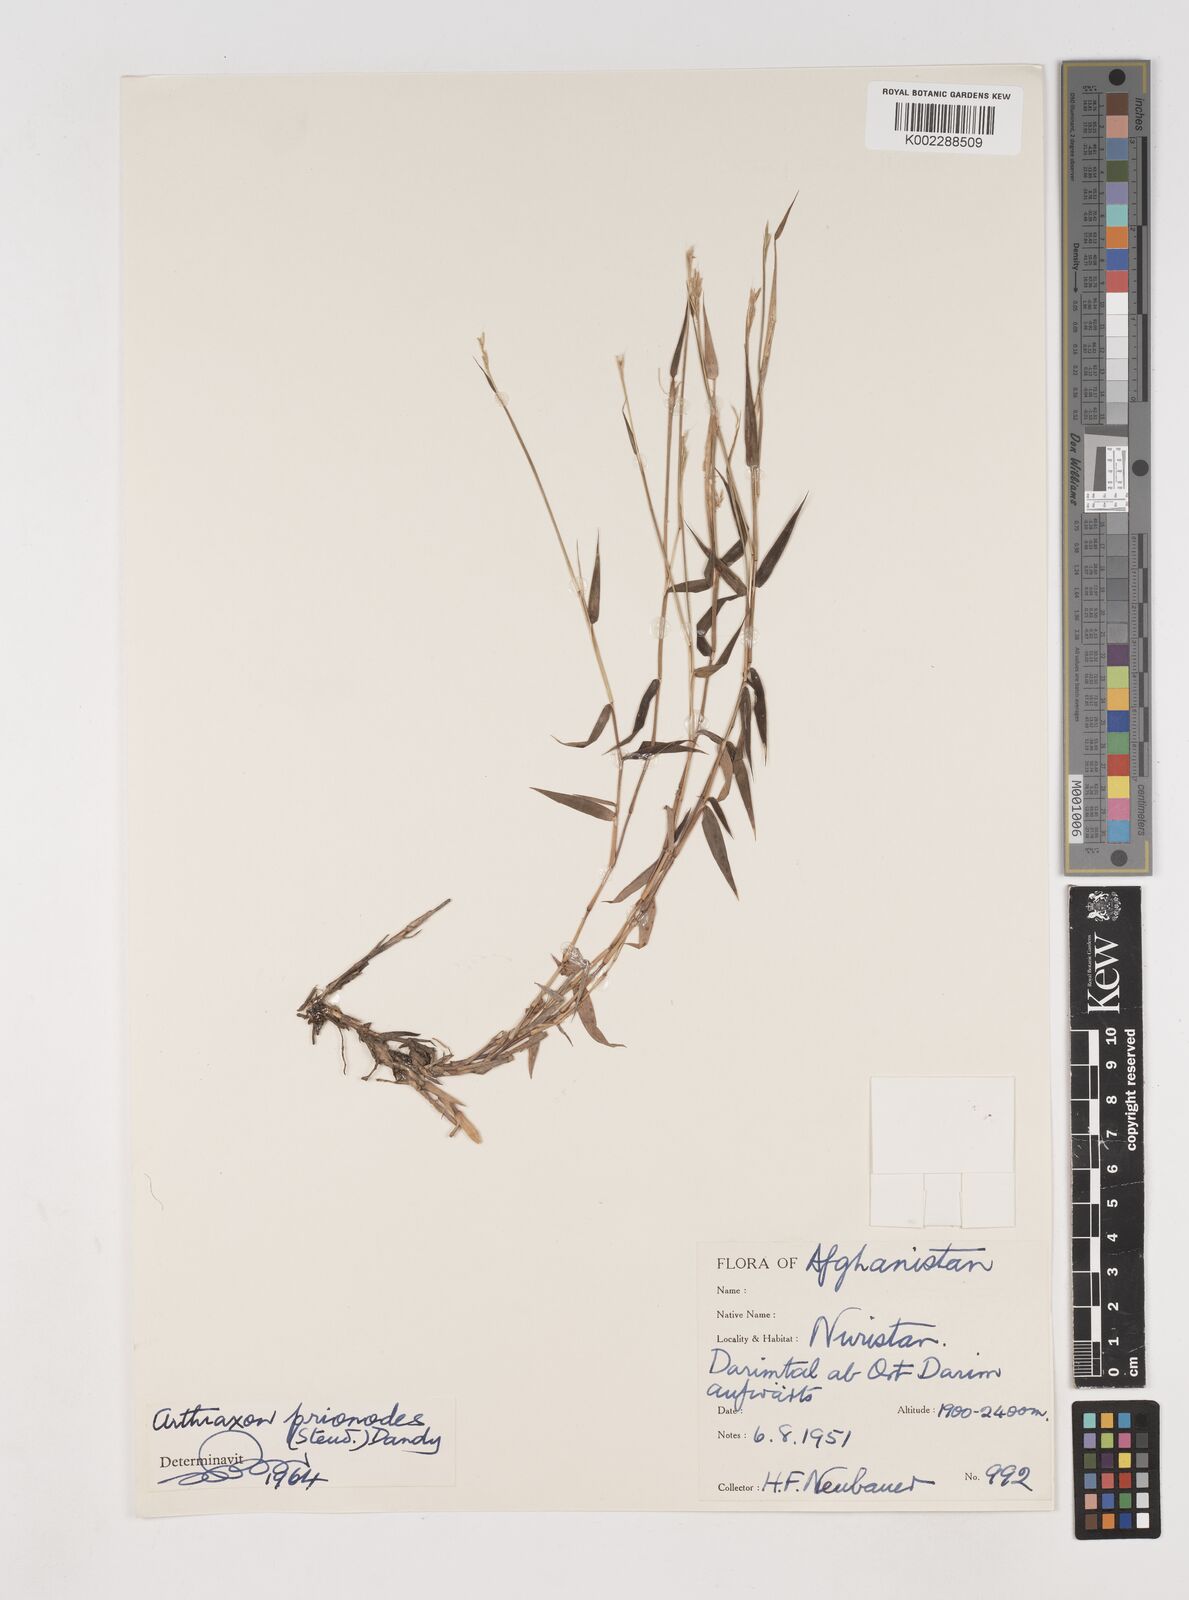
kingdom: Plantae
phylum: Tracheophyta
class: Liliopsida
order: Poales
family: Poaceae
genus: Arthraxon
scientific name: Arthraxon prionodes
